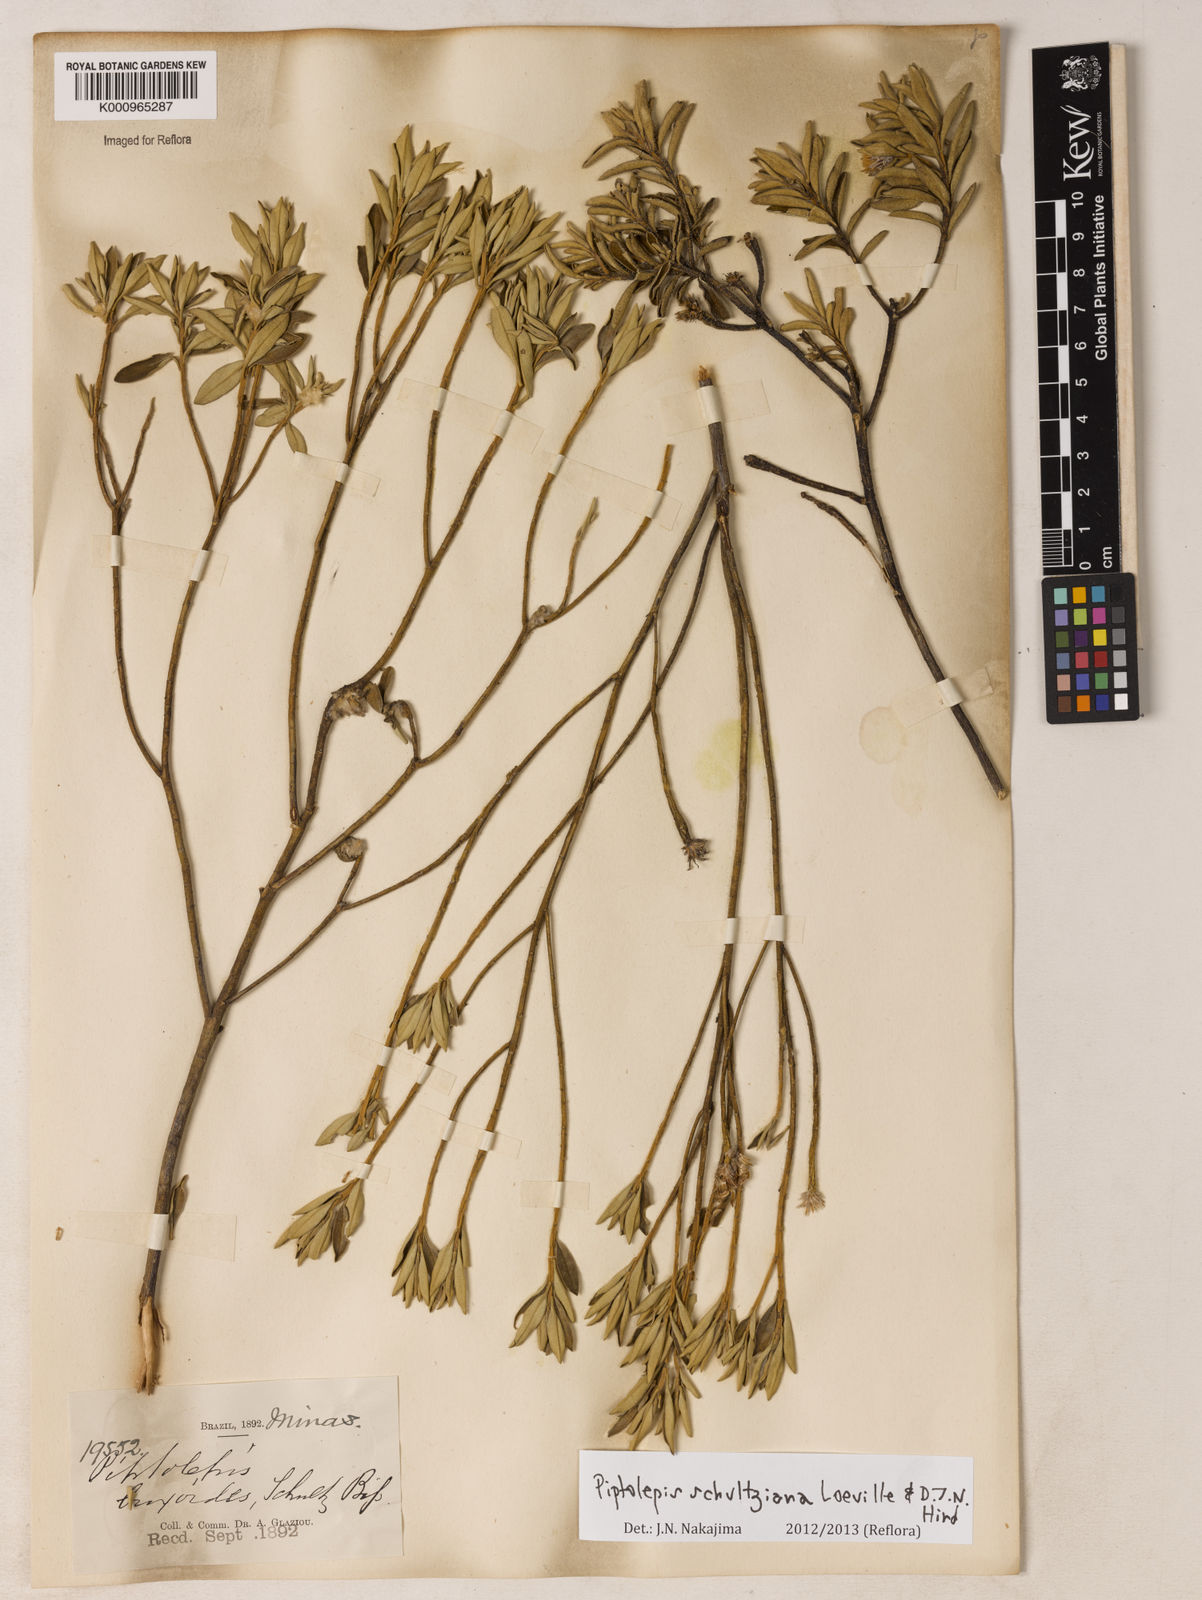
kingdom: Plantae
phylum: Tracheophyta
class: Magnoliopsida
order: Asterales
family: Asteraceae
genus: Piptolepis
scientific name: Piptolepis schultziana
